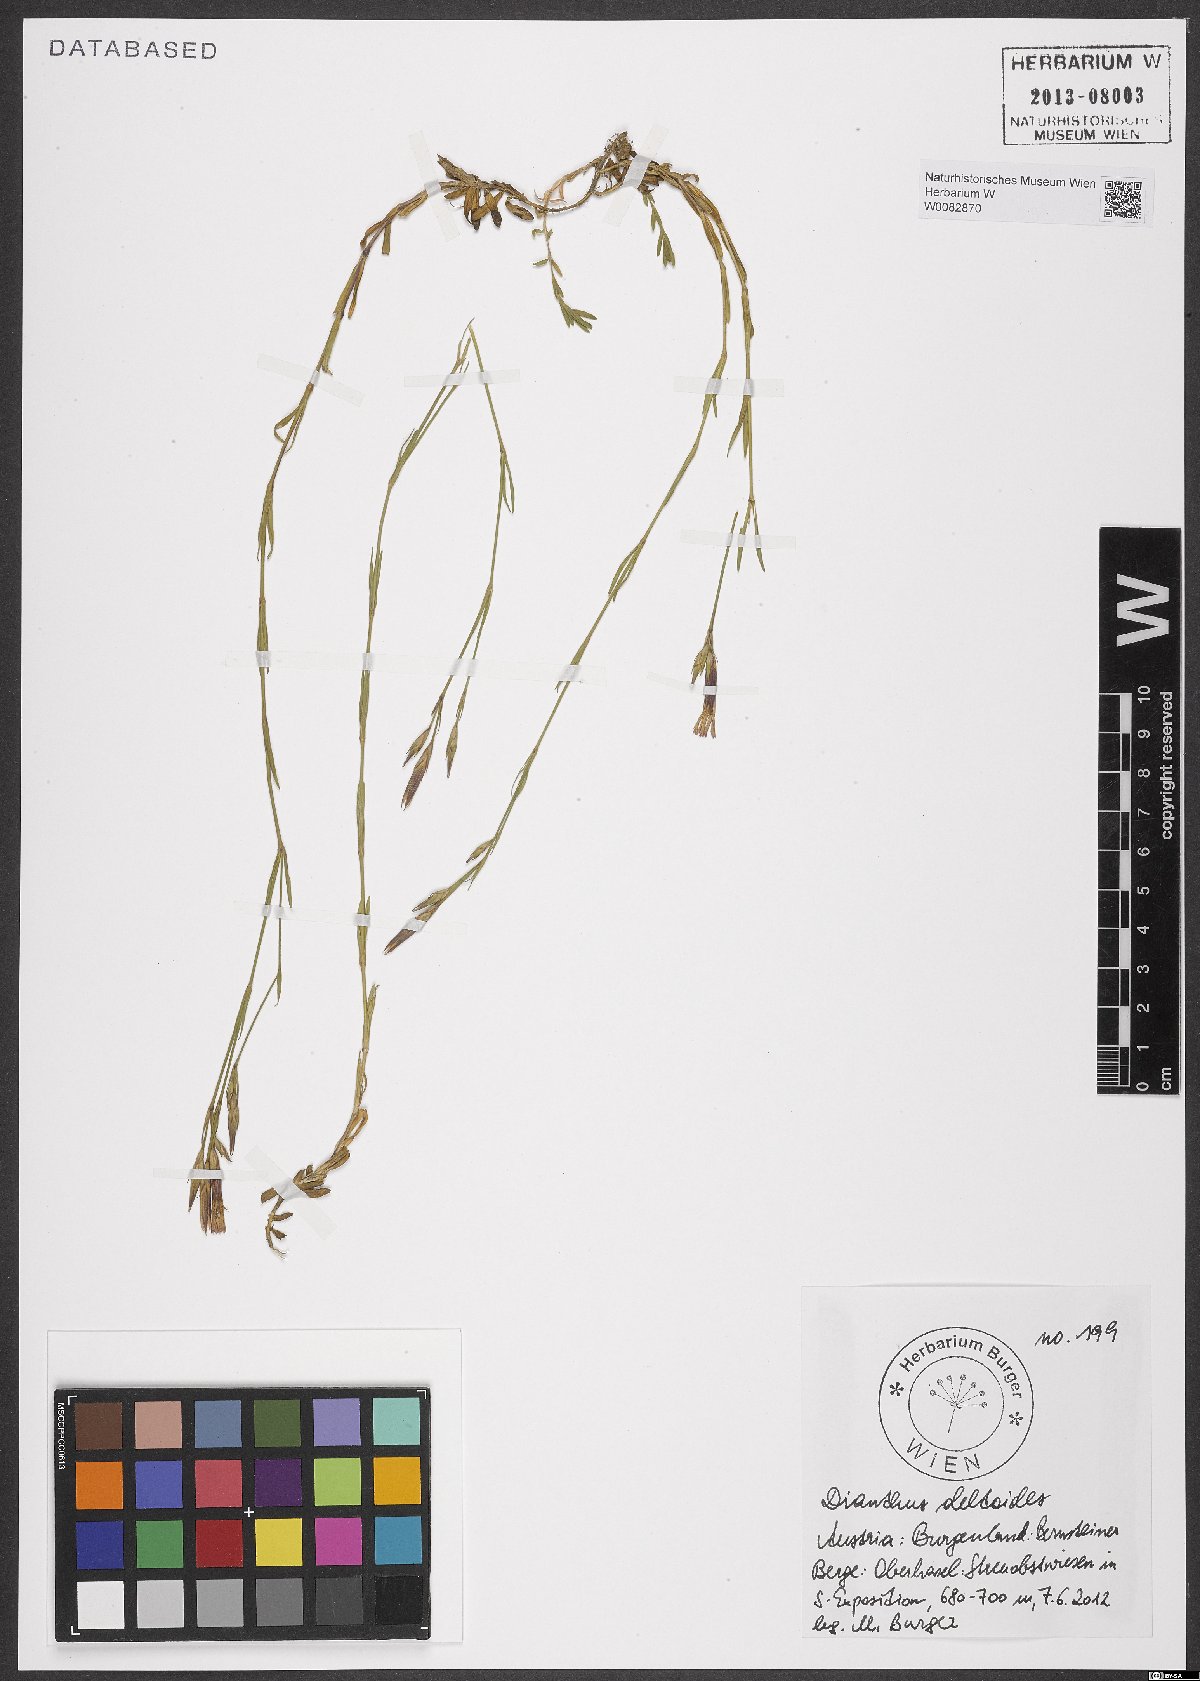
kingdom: Plantae
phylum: Tracheophyta
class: Magnoliopsida
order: Caryophyllales
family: Caryophyllaceae
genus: Dianthus
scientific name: Dianthus deltoides
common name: Maiden pink
